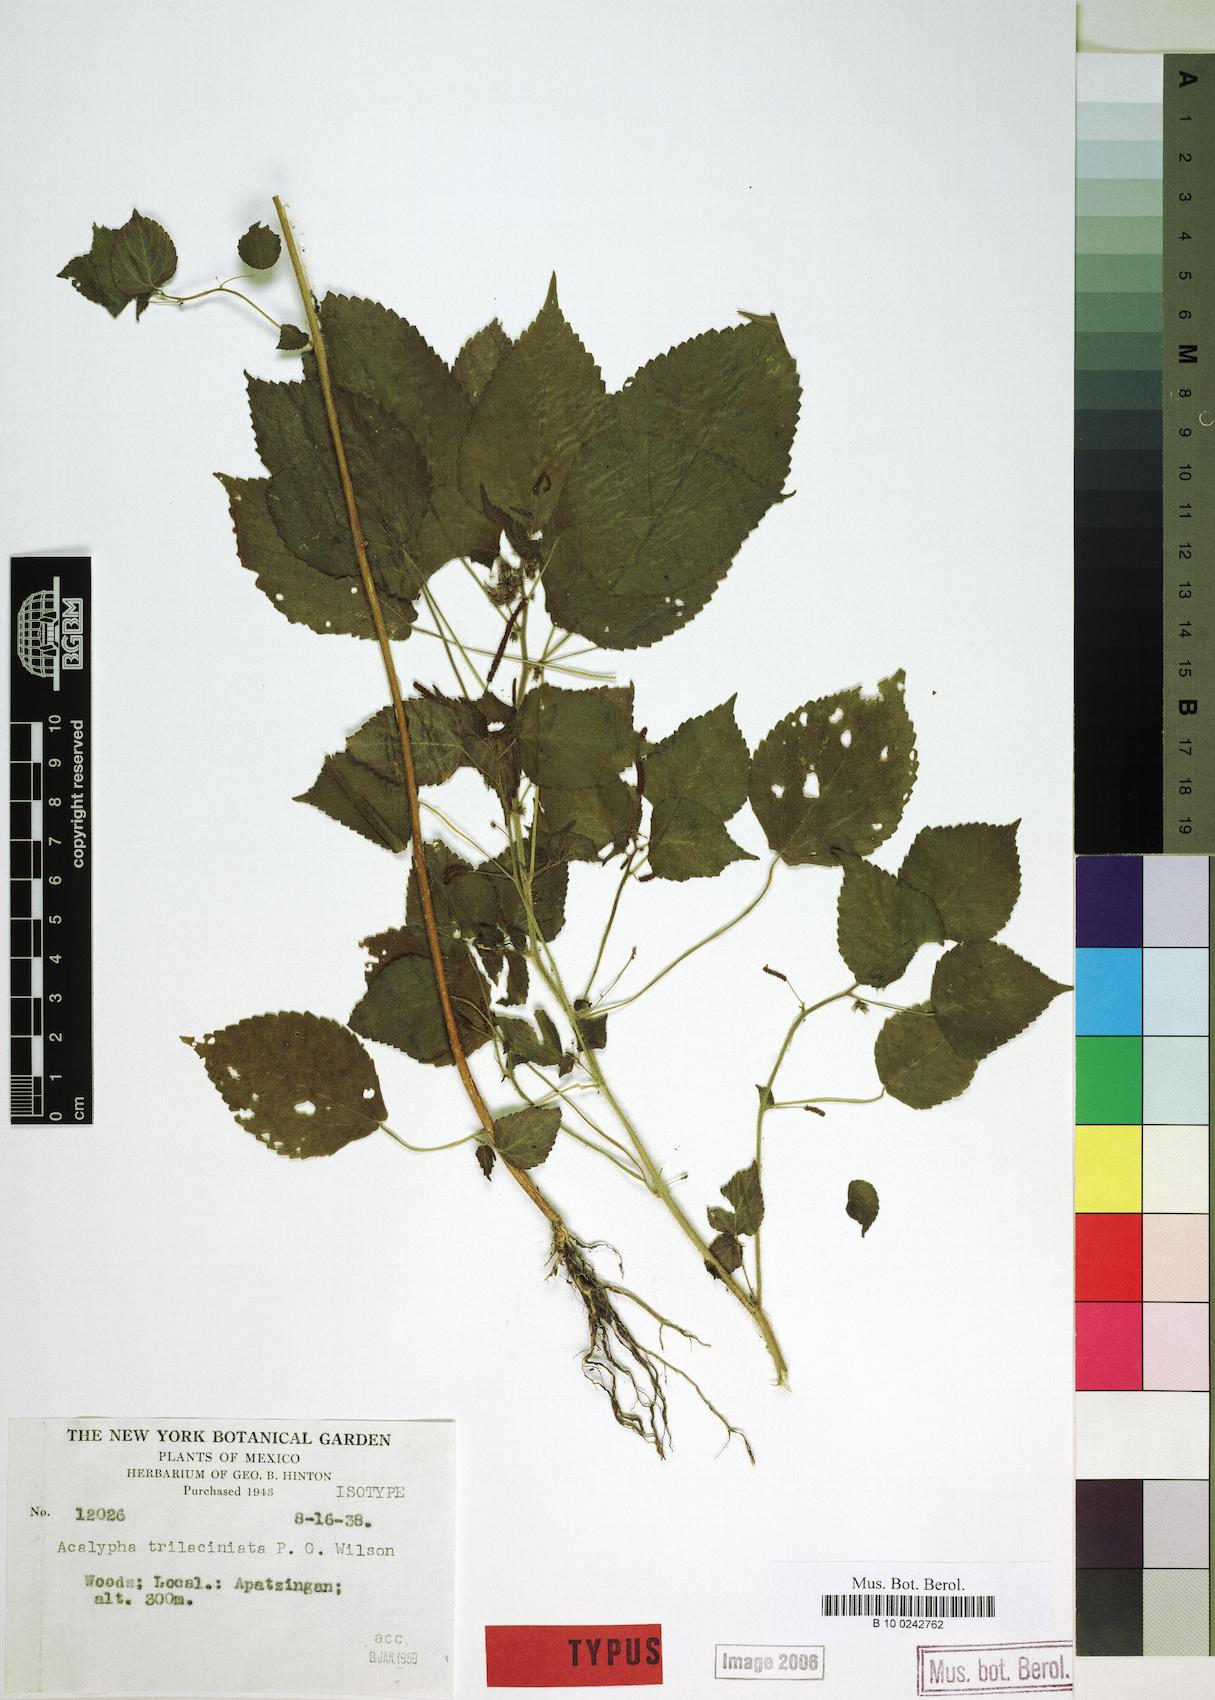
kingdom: Plantae
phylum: Tracheophyta
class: Magnoliopsida
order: Malpighiales
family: Euphorbiaceae
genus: Acalypha
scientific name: Acalypha trilaciniata
